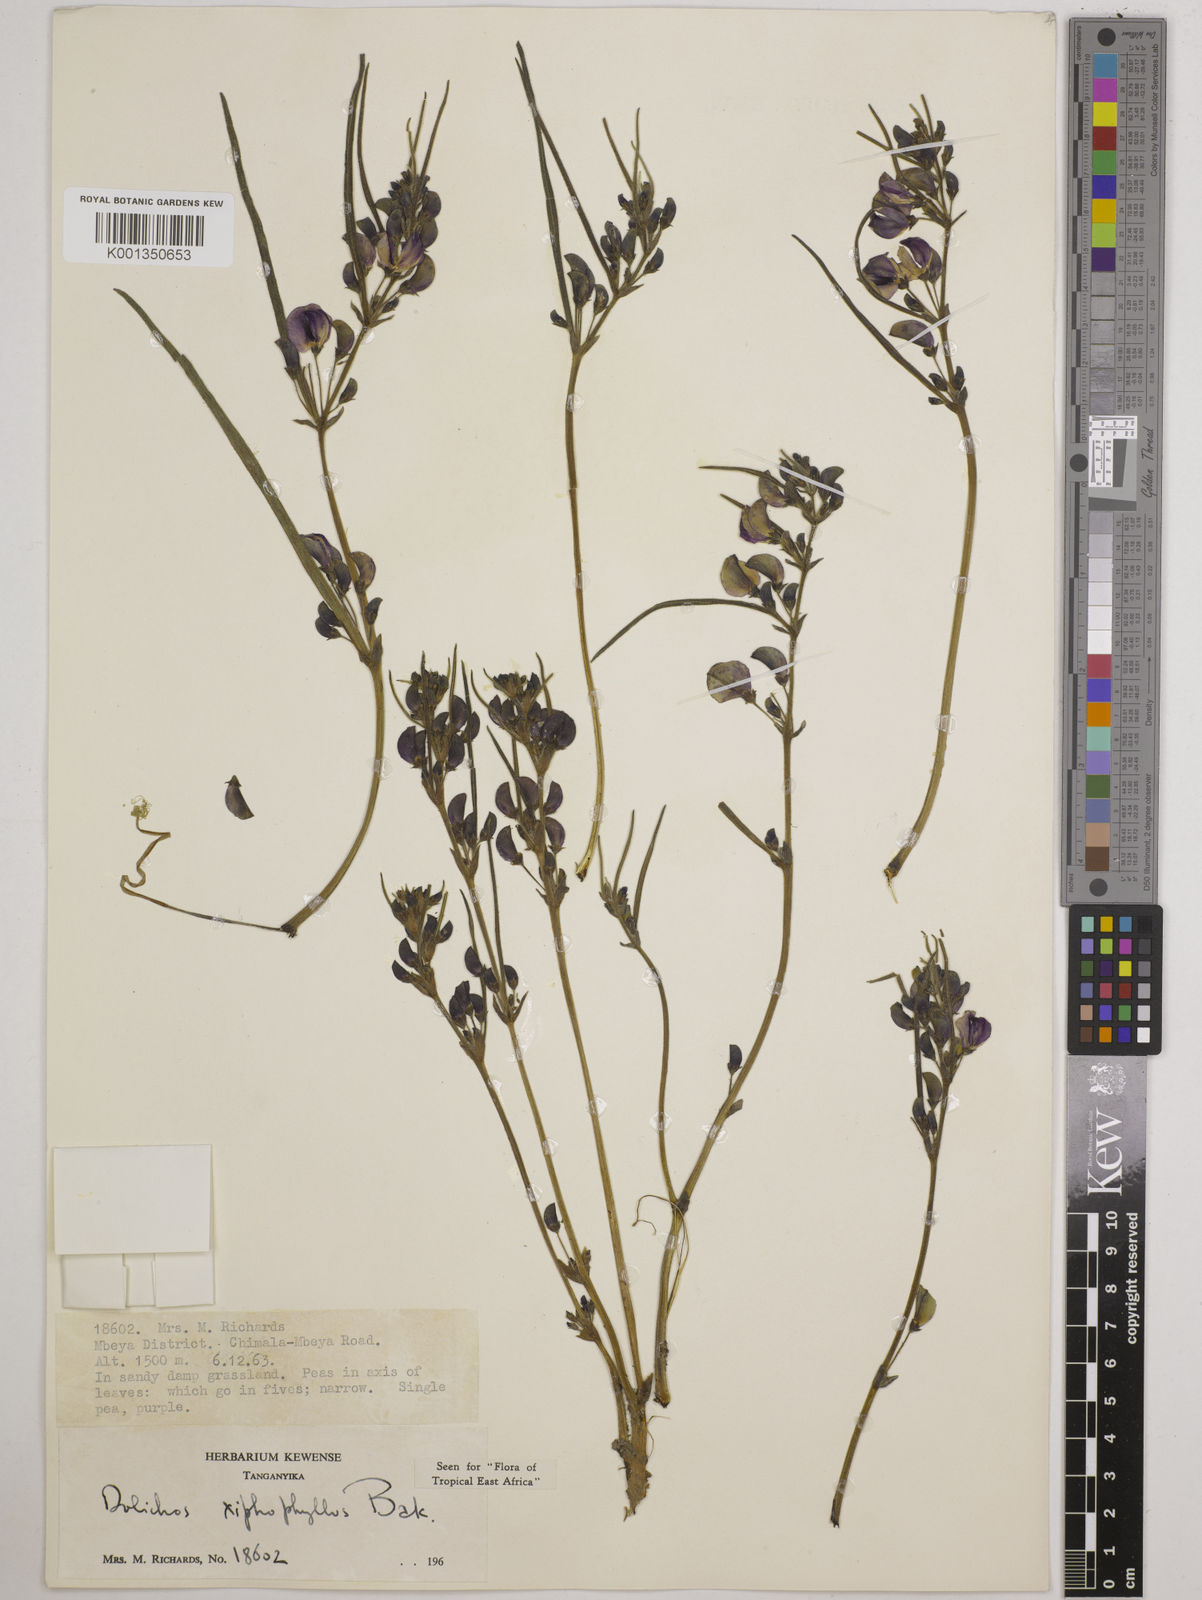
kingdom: Plantae
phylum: Tracheophyta
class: Magnoliopsida
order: Fabales
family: Fabaceae
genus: Dolichos
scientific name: Dolichos xiphophyllus
